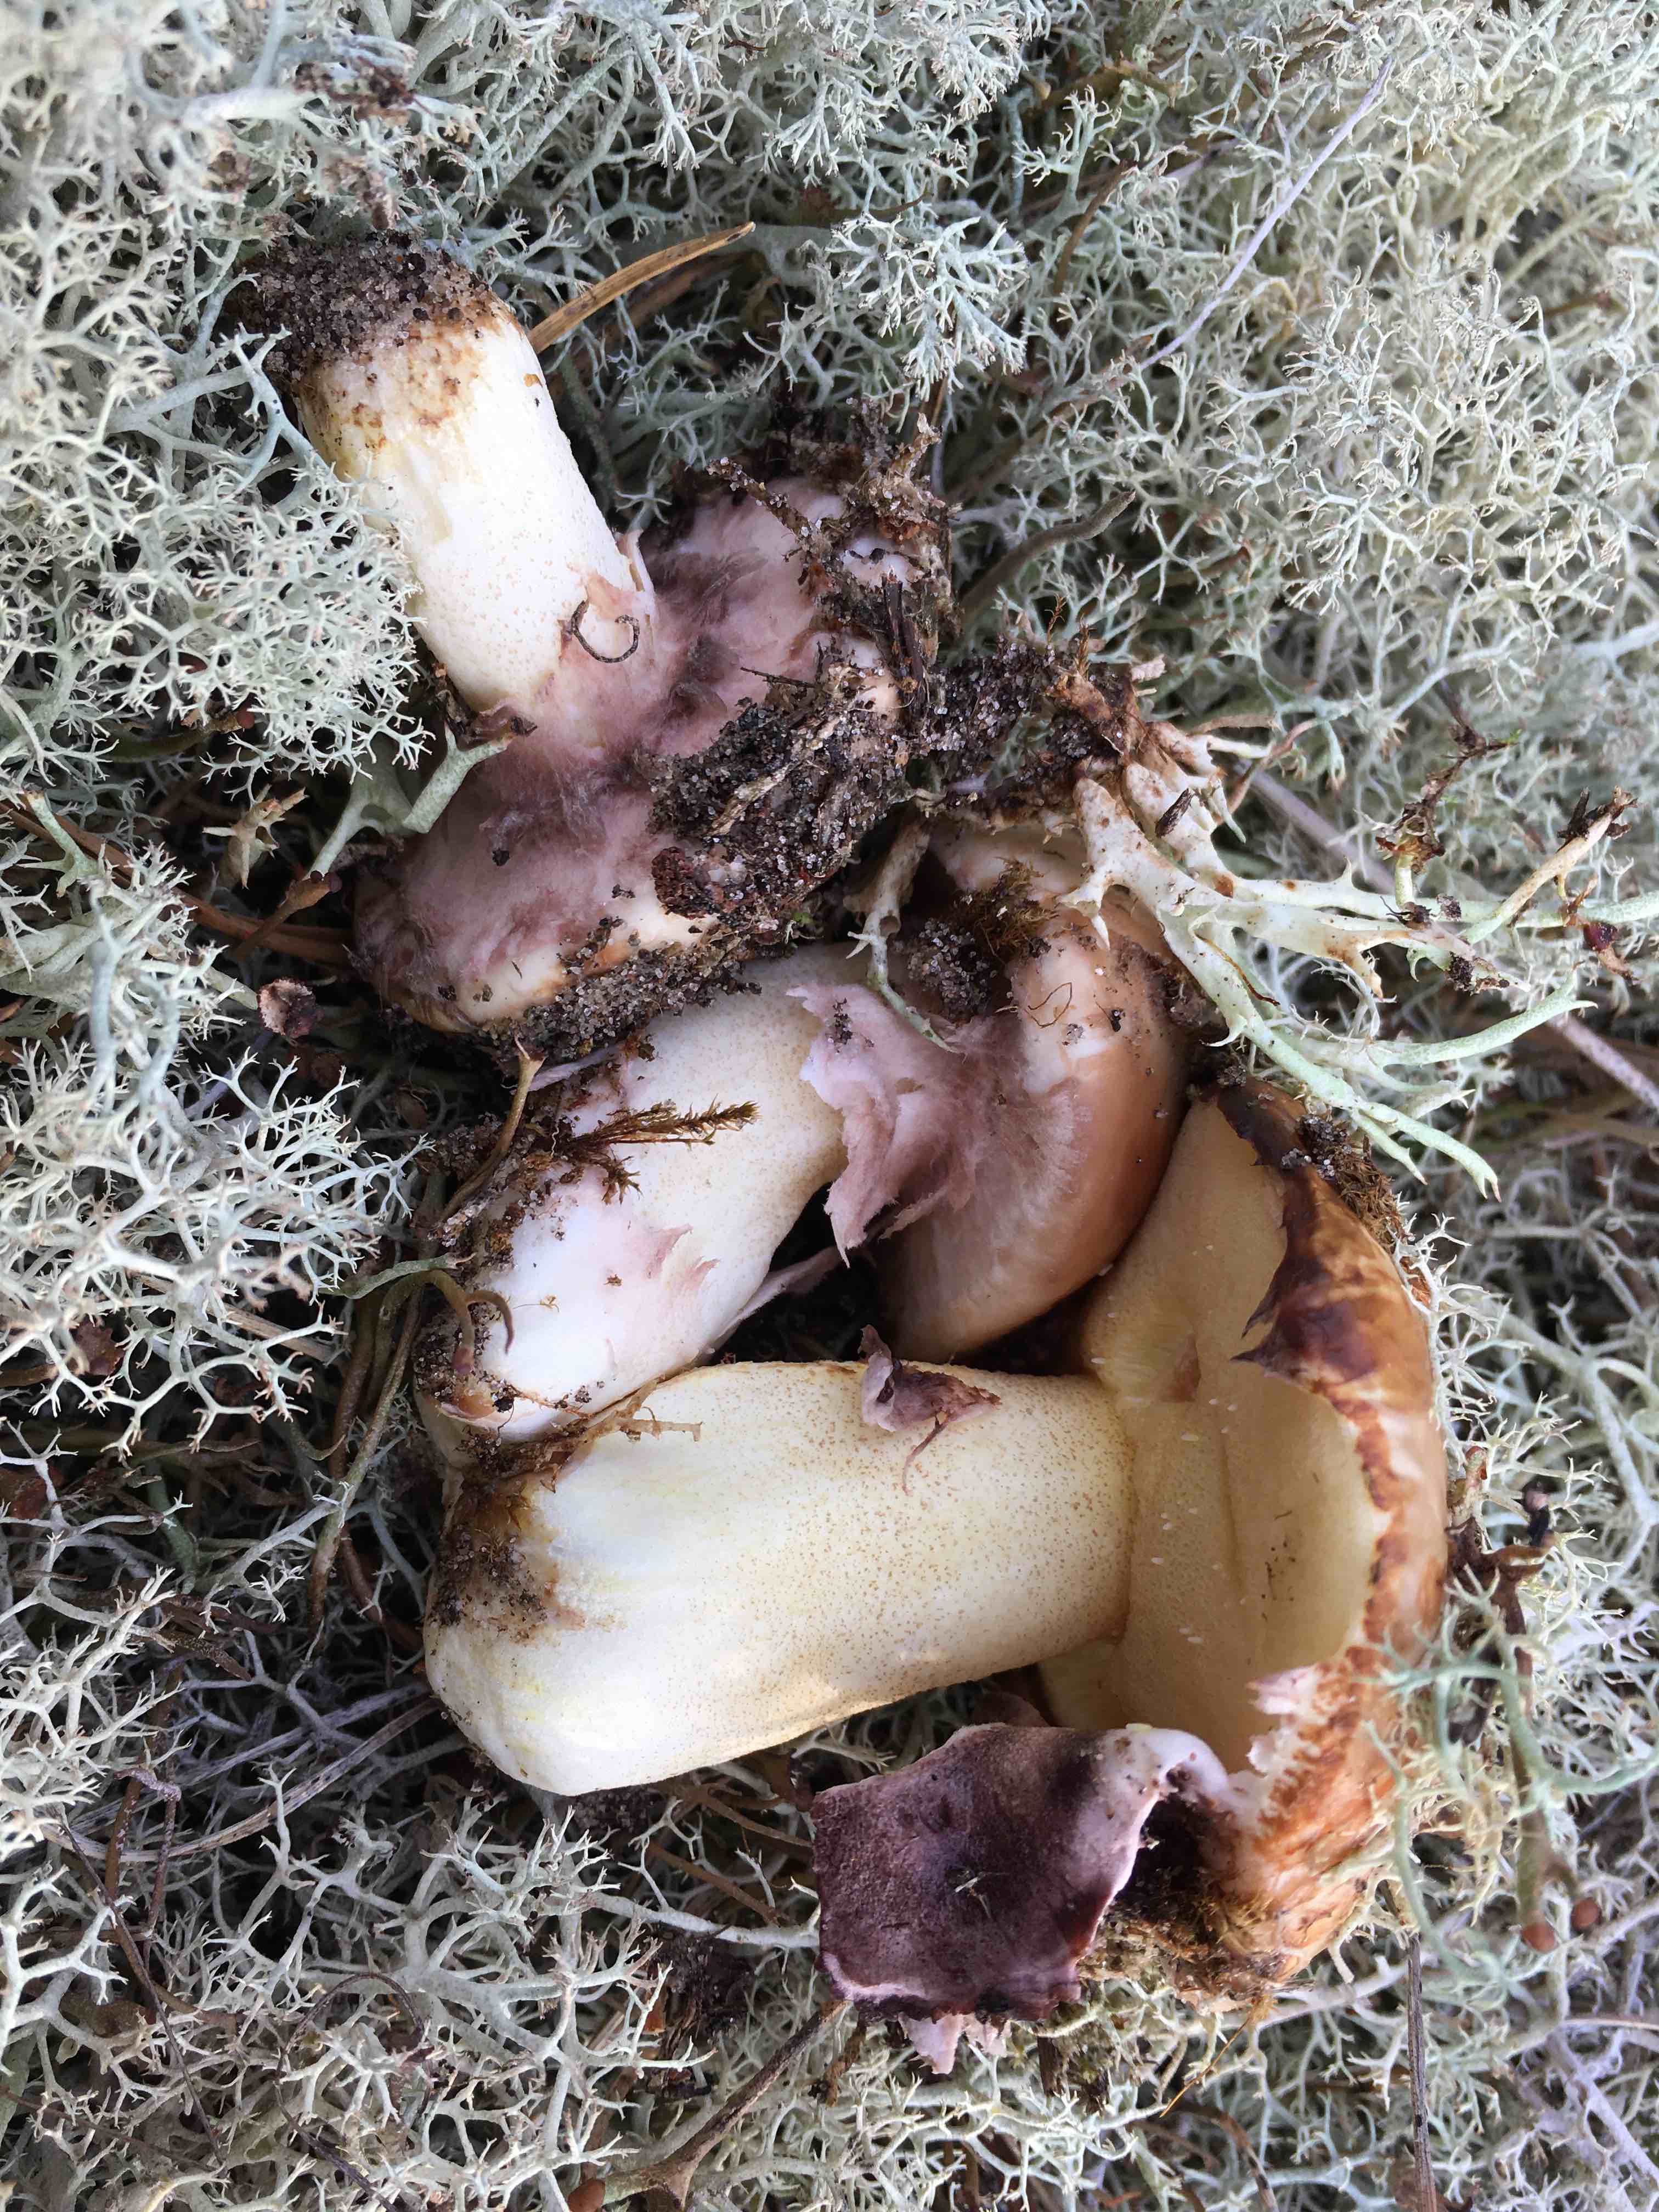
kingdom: Fungi
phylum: Basidiomycota
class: Agaricomycetes
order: Boletales
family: Suillaceae
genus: Suillus
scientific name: Suillus luteus
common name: brungul slimrørhat
